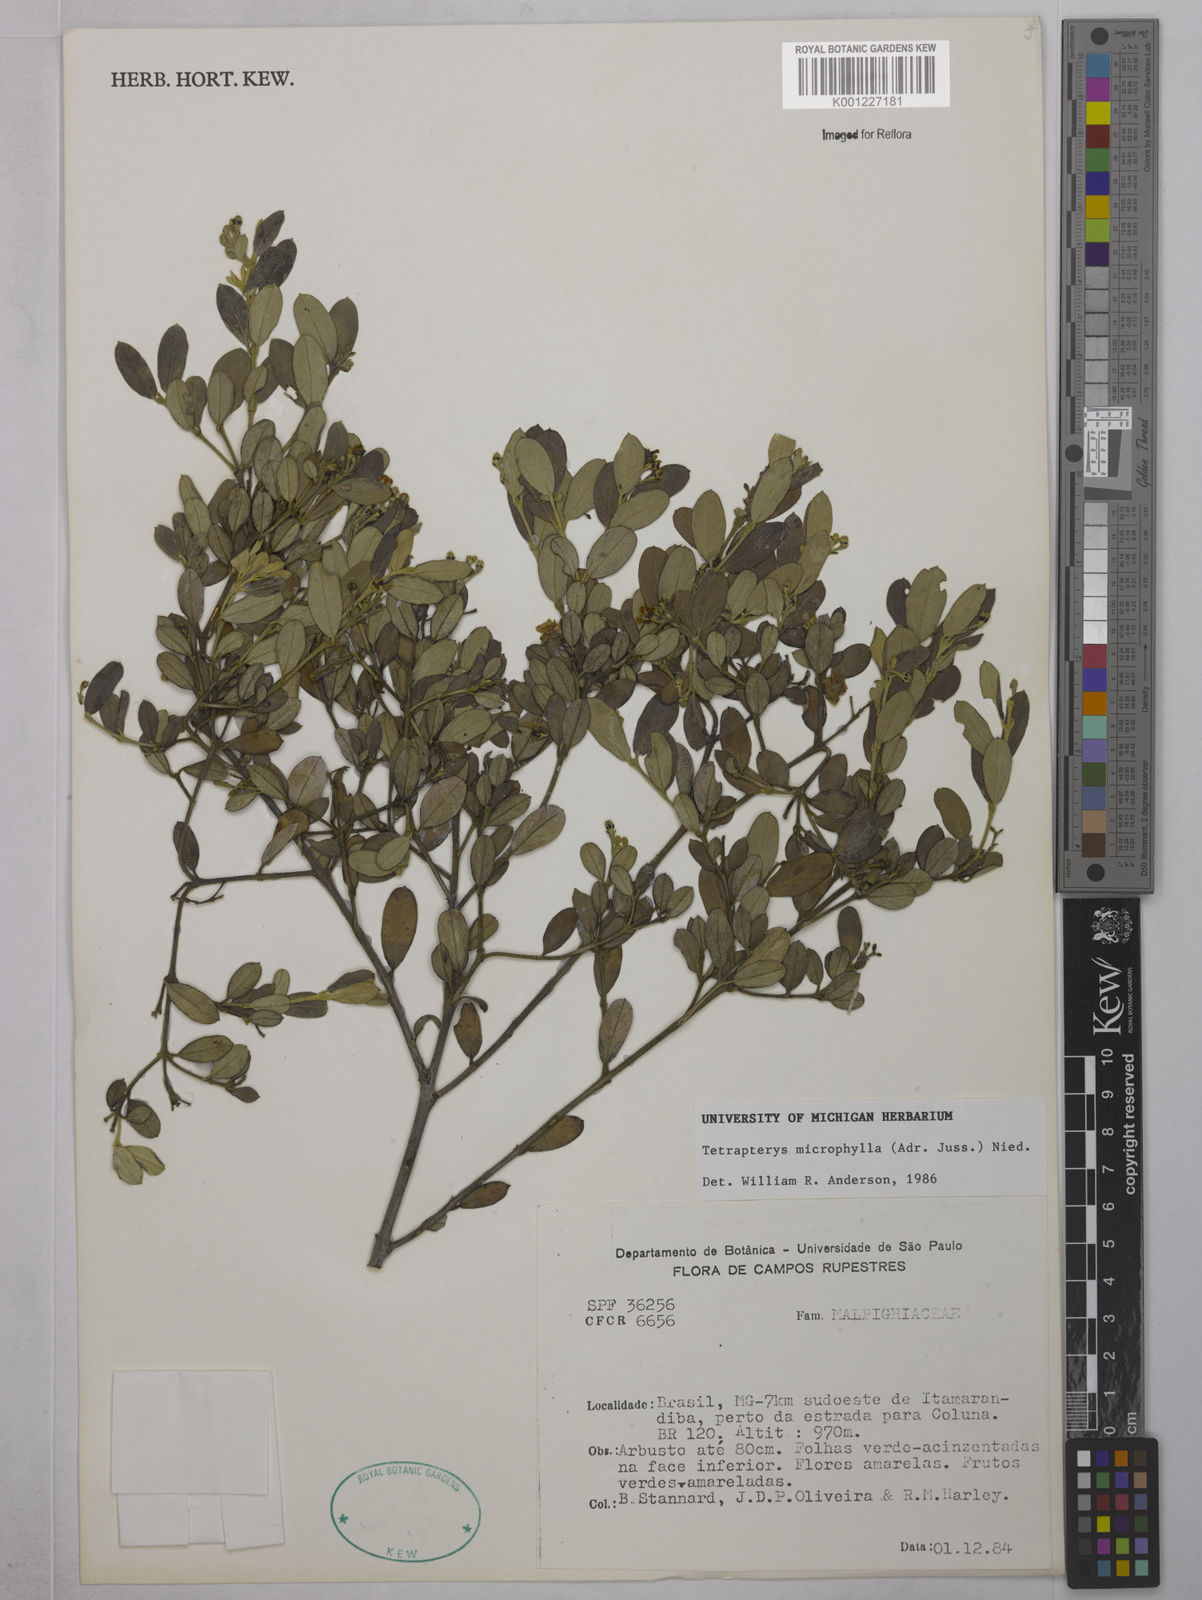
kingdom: Plantae
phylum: Tracheophyta
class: Magnoliopsida
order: Malpighiales
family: Malpighiaceae
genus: Glicophyllum
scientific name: Glicophyllum microphyllum
